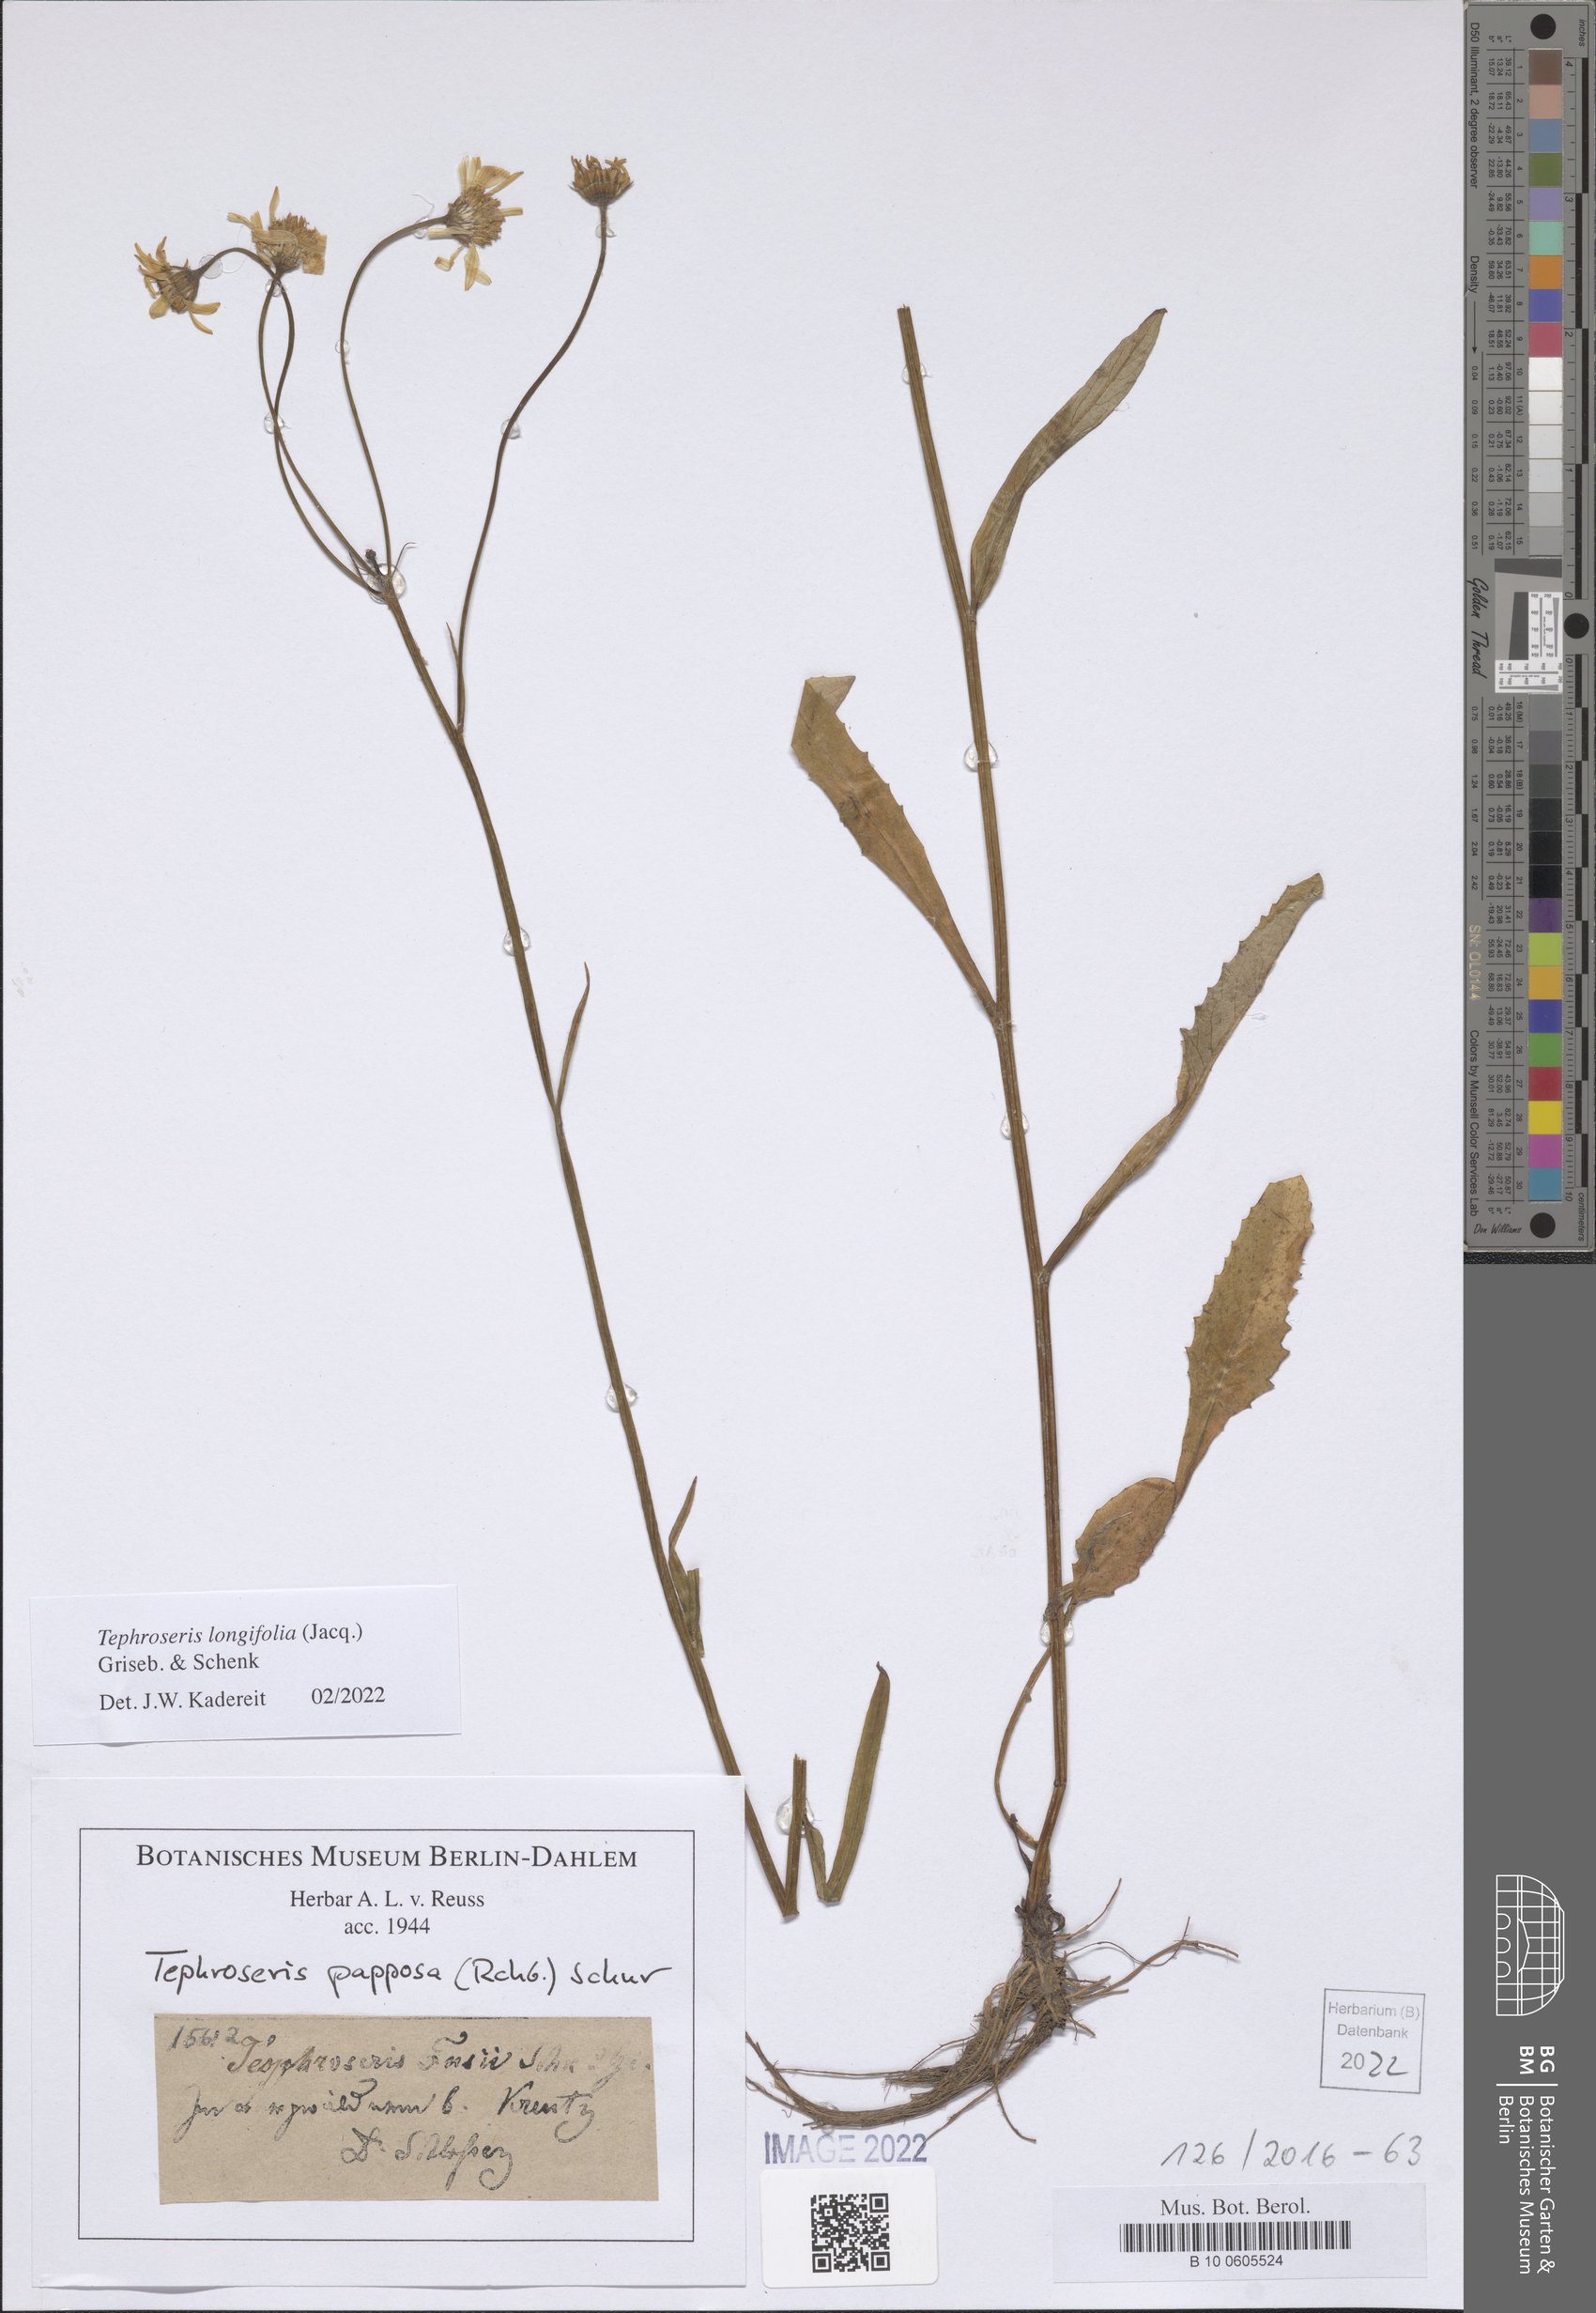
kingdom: Plantae
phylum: Tracheophyta
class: Magnoliopsida
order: Asterales
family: Asteraceae
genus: Tephroseris
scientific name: Tephroseris longifolia
